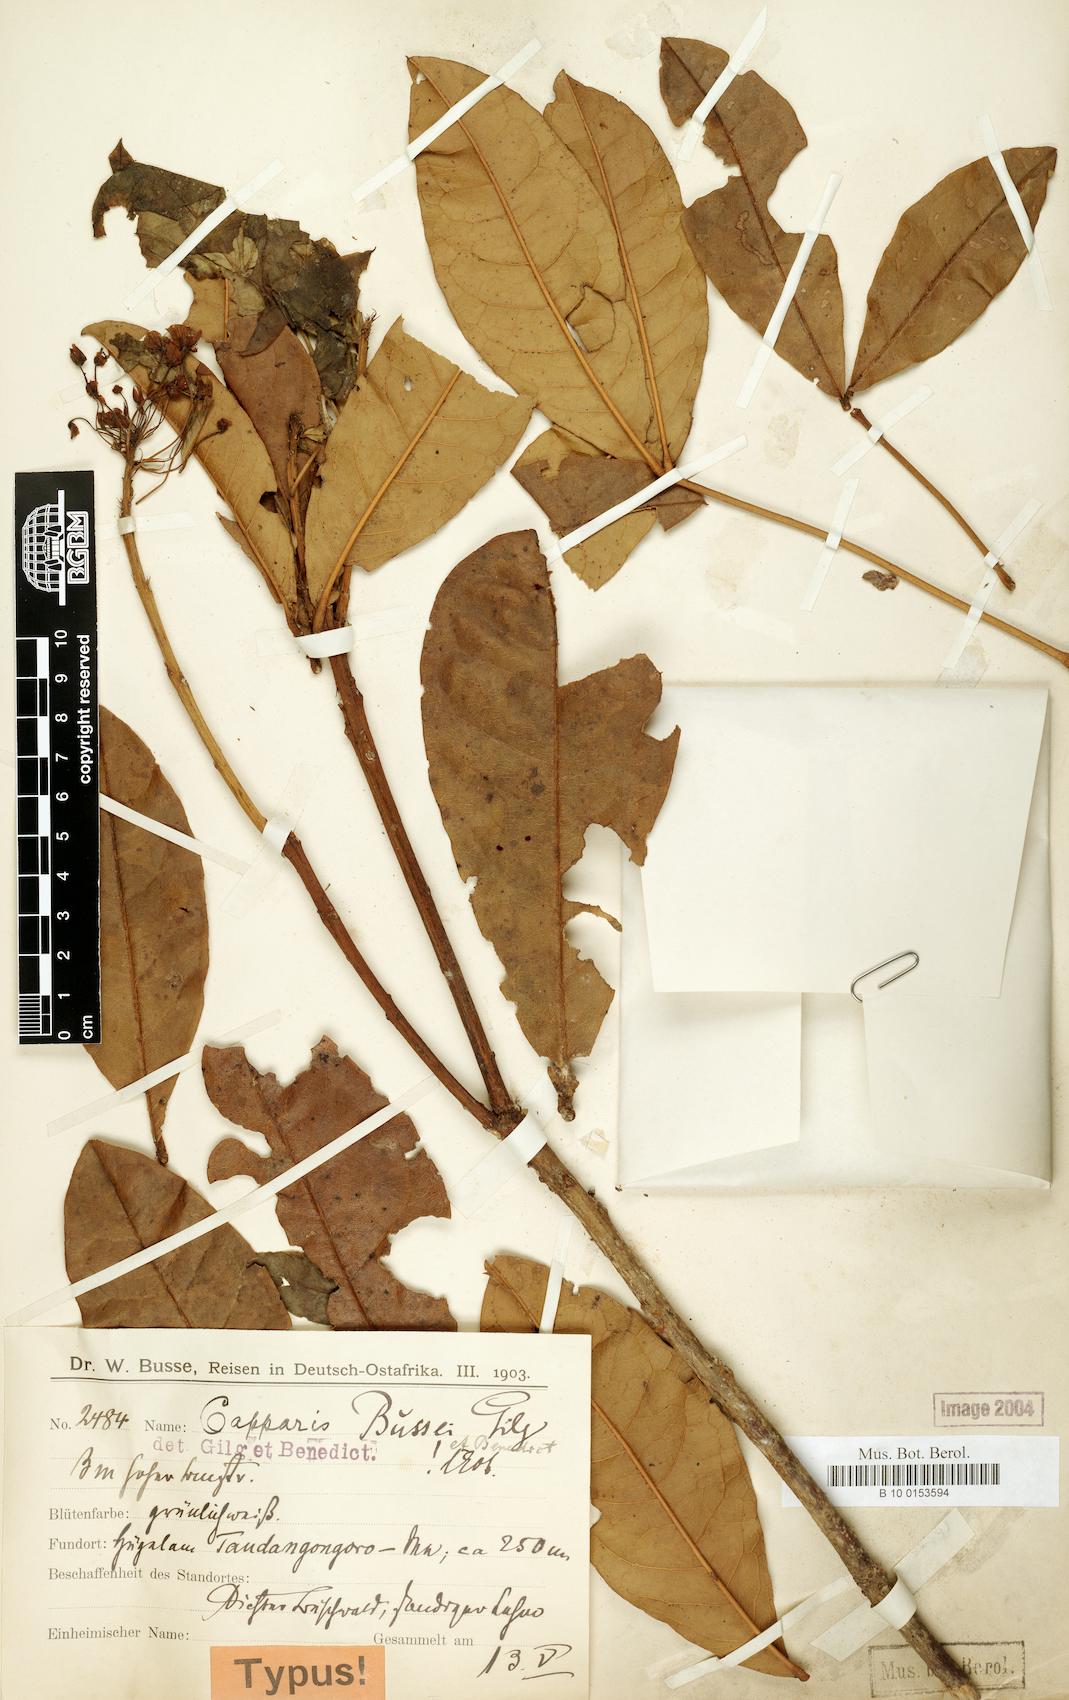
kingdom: Plantae
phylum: Tracheophyta
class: Magnoliopsida
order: Brassicales
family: Capparaceae
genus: Maerua
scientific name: Maerua bussei
